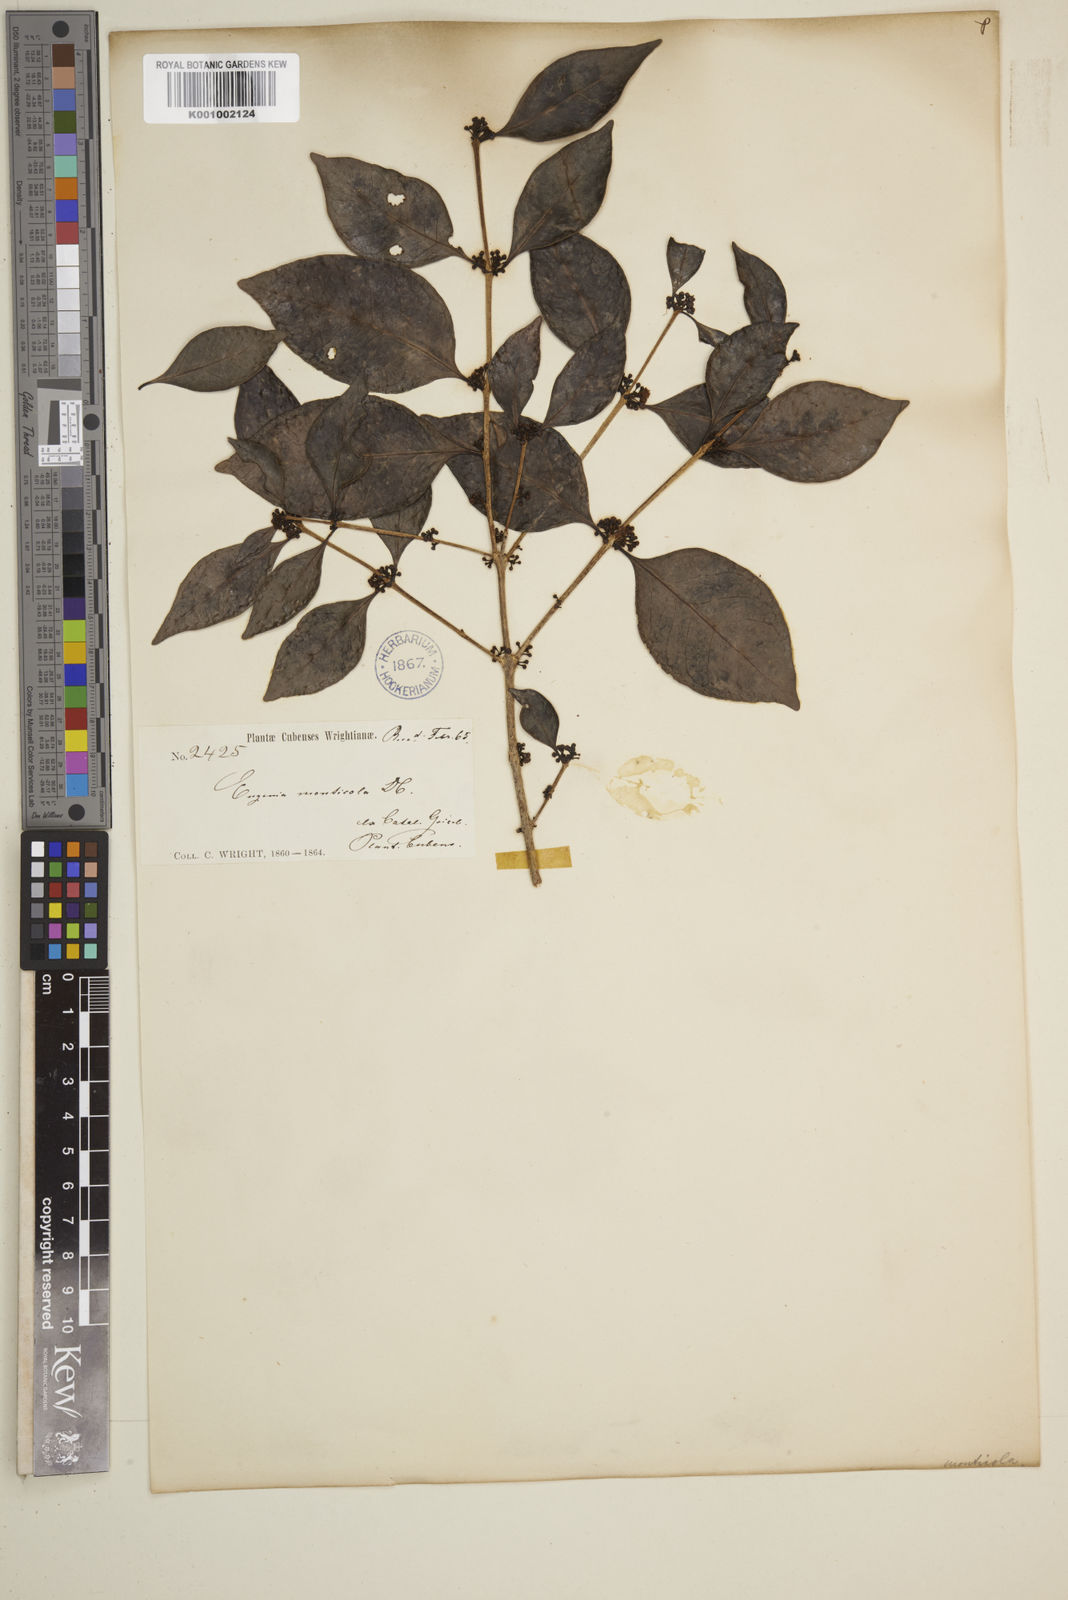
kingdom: Plantae
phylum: Tracheophyta
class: Magnoliopsida
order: Myrtales
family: Myrtaceae
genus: Eugenia
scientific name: Eugenia monticola
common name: Birds berry
